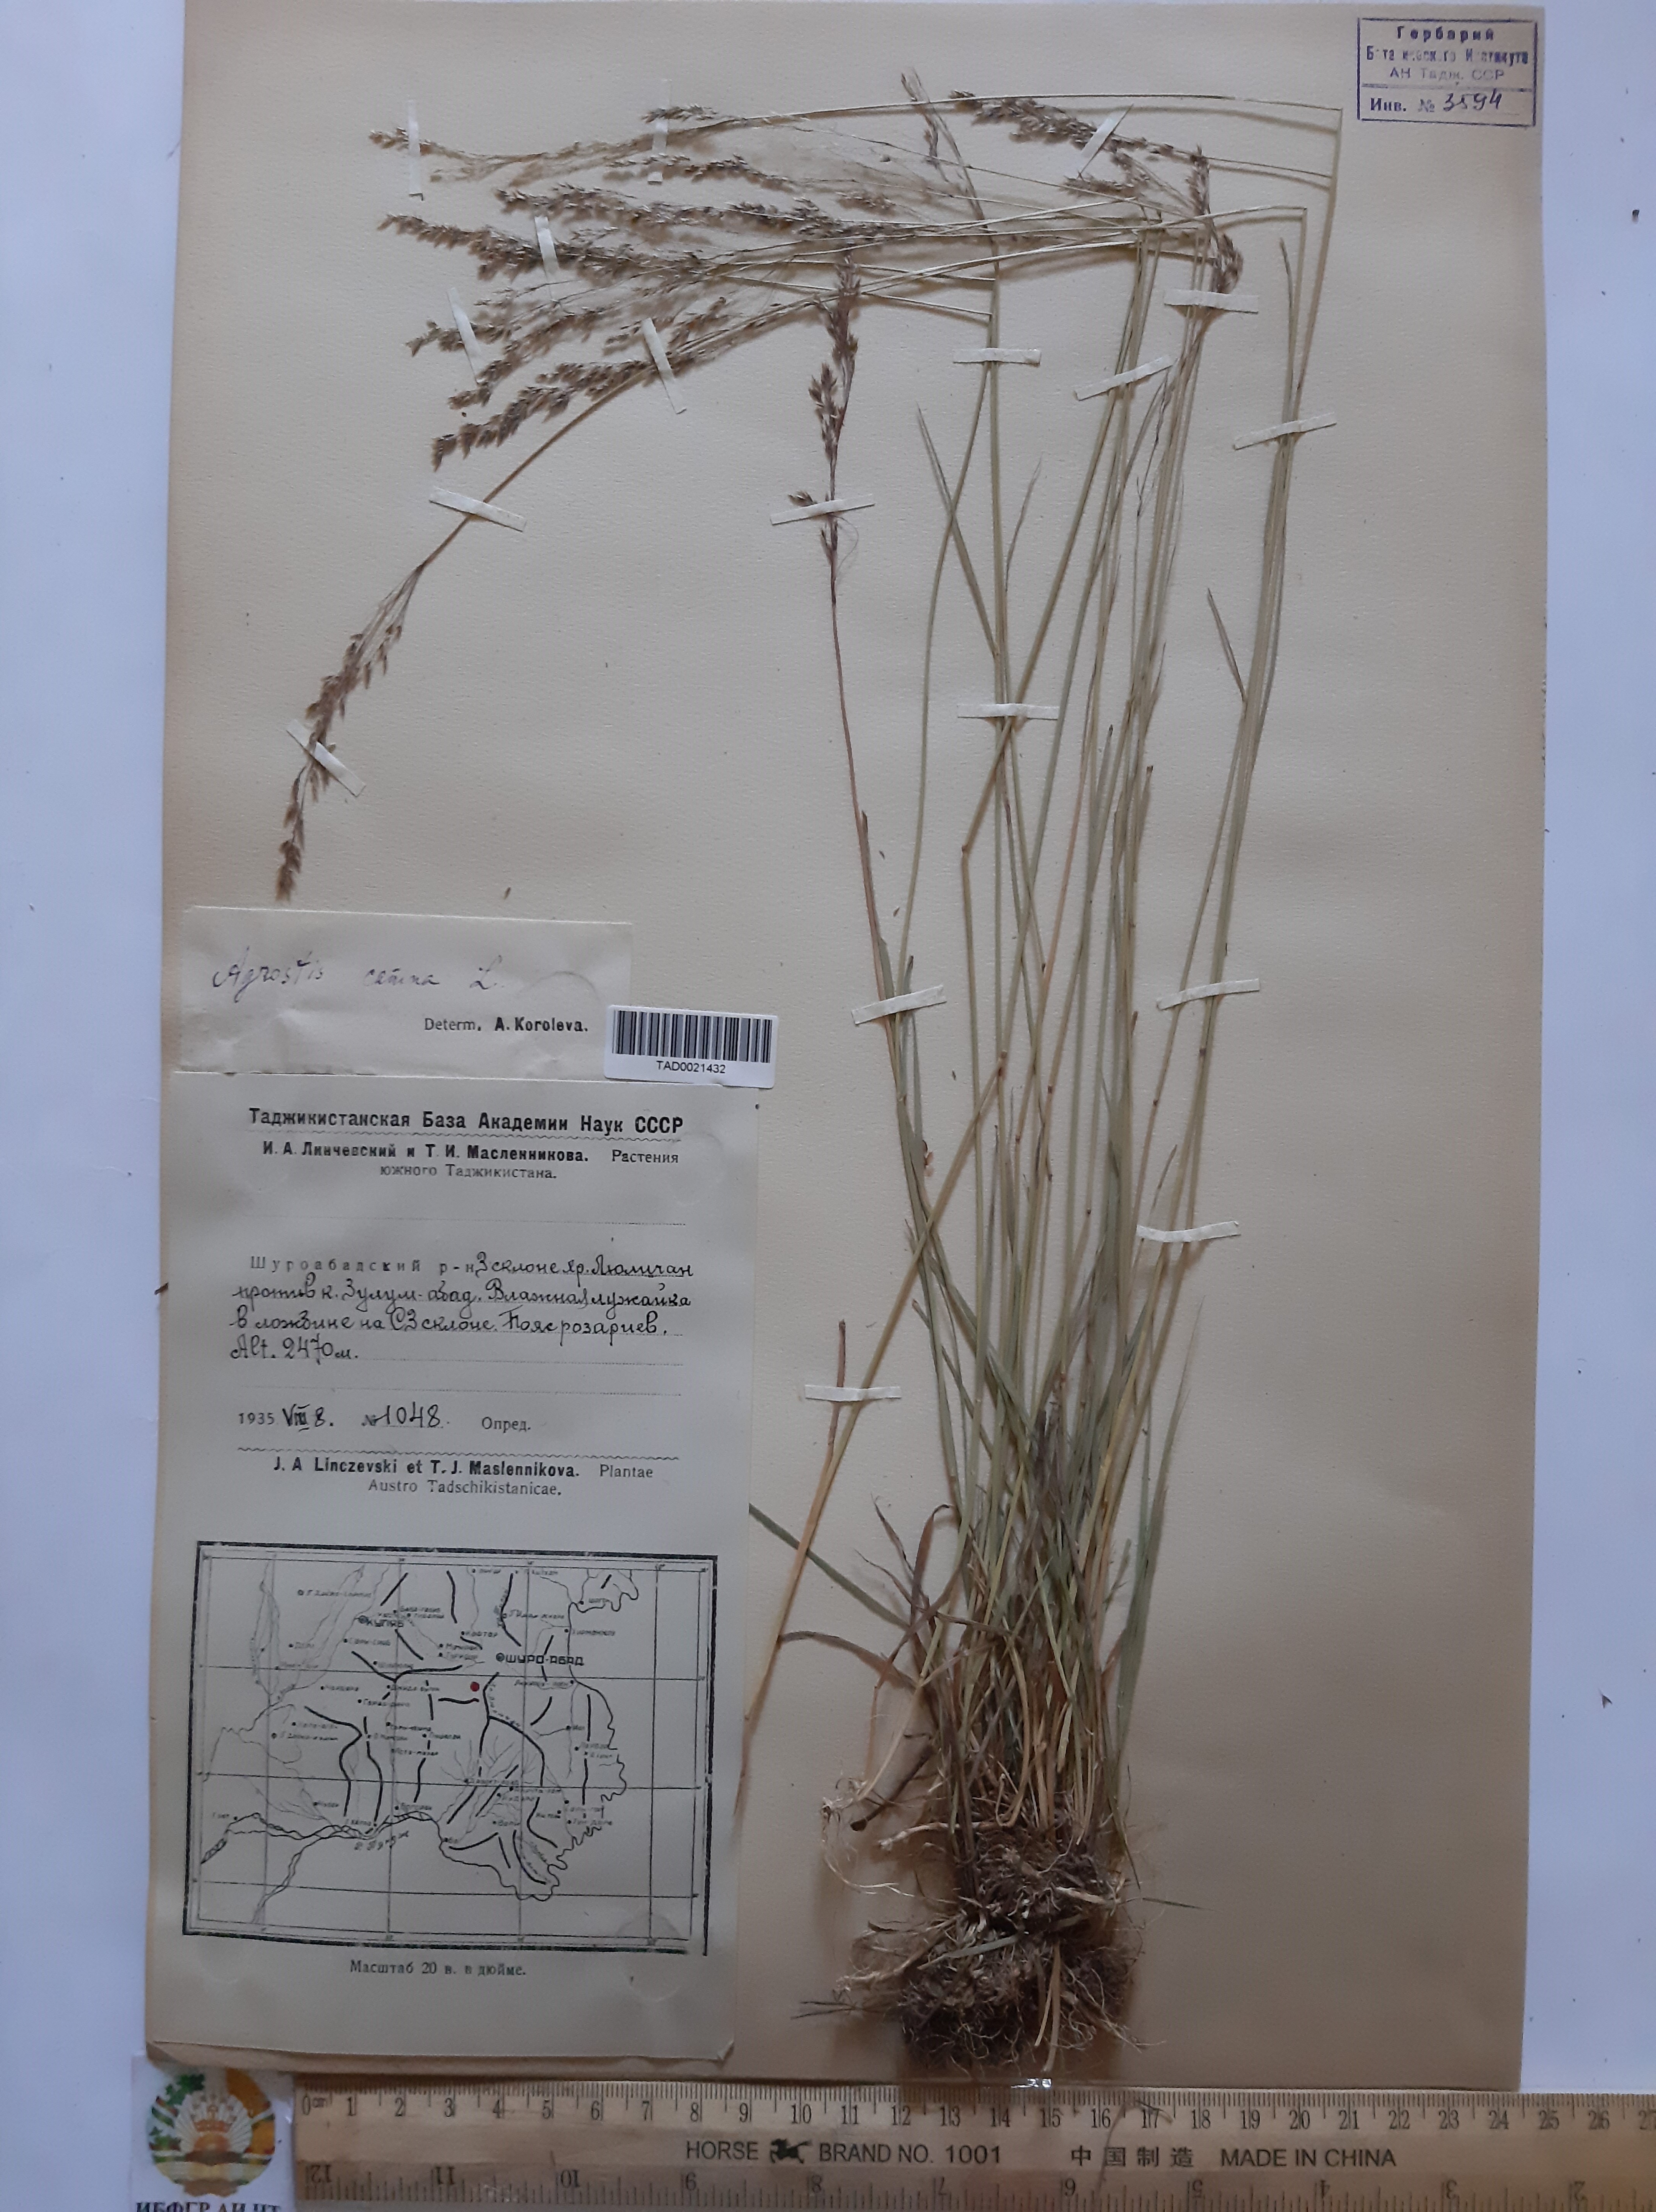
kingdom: Plantae
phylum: Tracheophyta
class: Liliopsida
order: Poales
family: Poaceae
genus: Agrostis
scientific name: Agrostis canina
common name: Velvet bent
